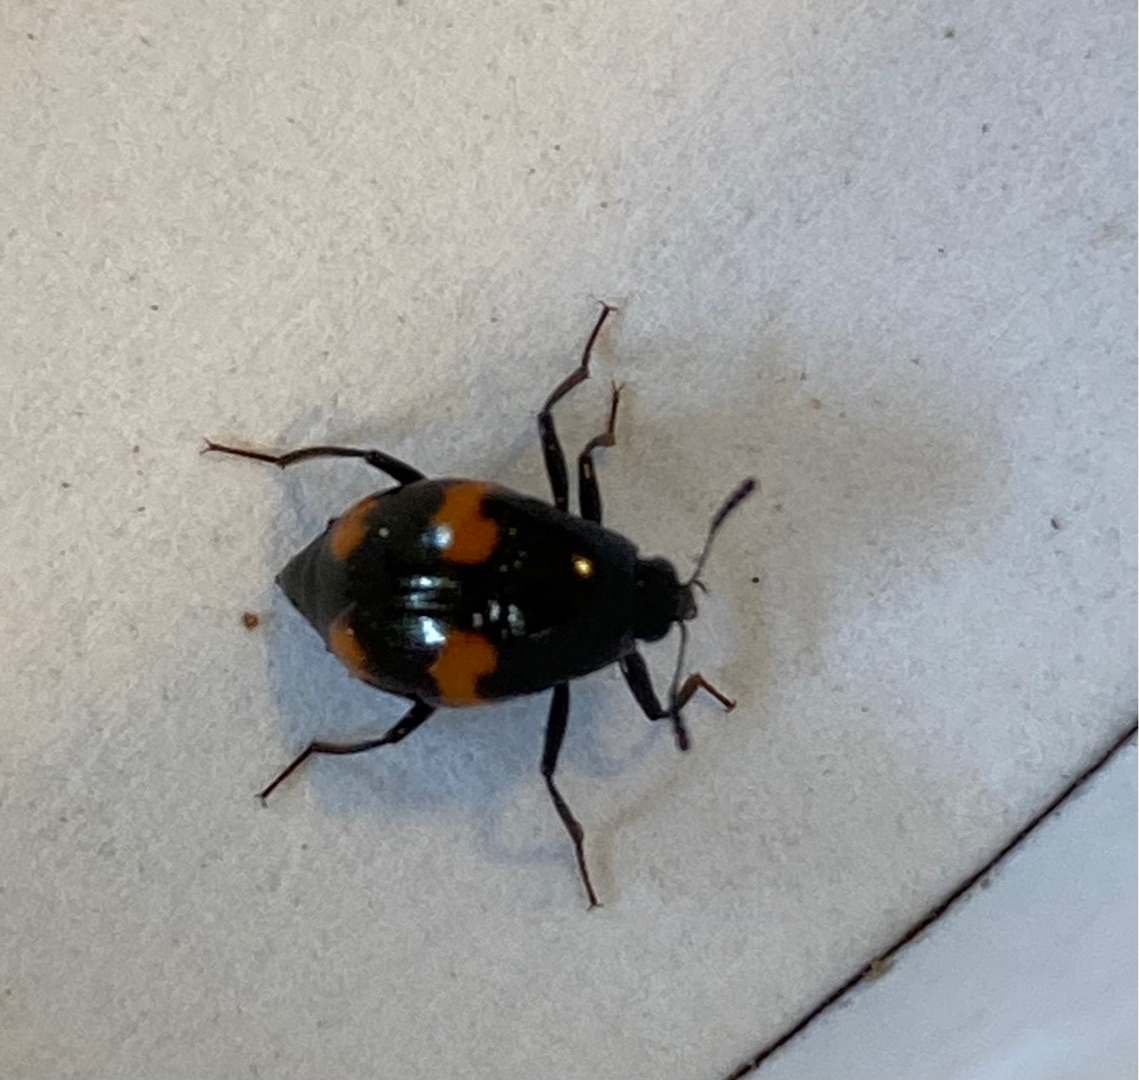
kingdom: Animalia
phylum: Arthropoda
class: Insecta
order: Coleoptera
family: Staphylinidae
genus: Scaphidium
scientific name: Scaphidium quadrimaculatum
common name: Dråberovbille
